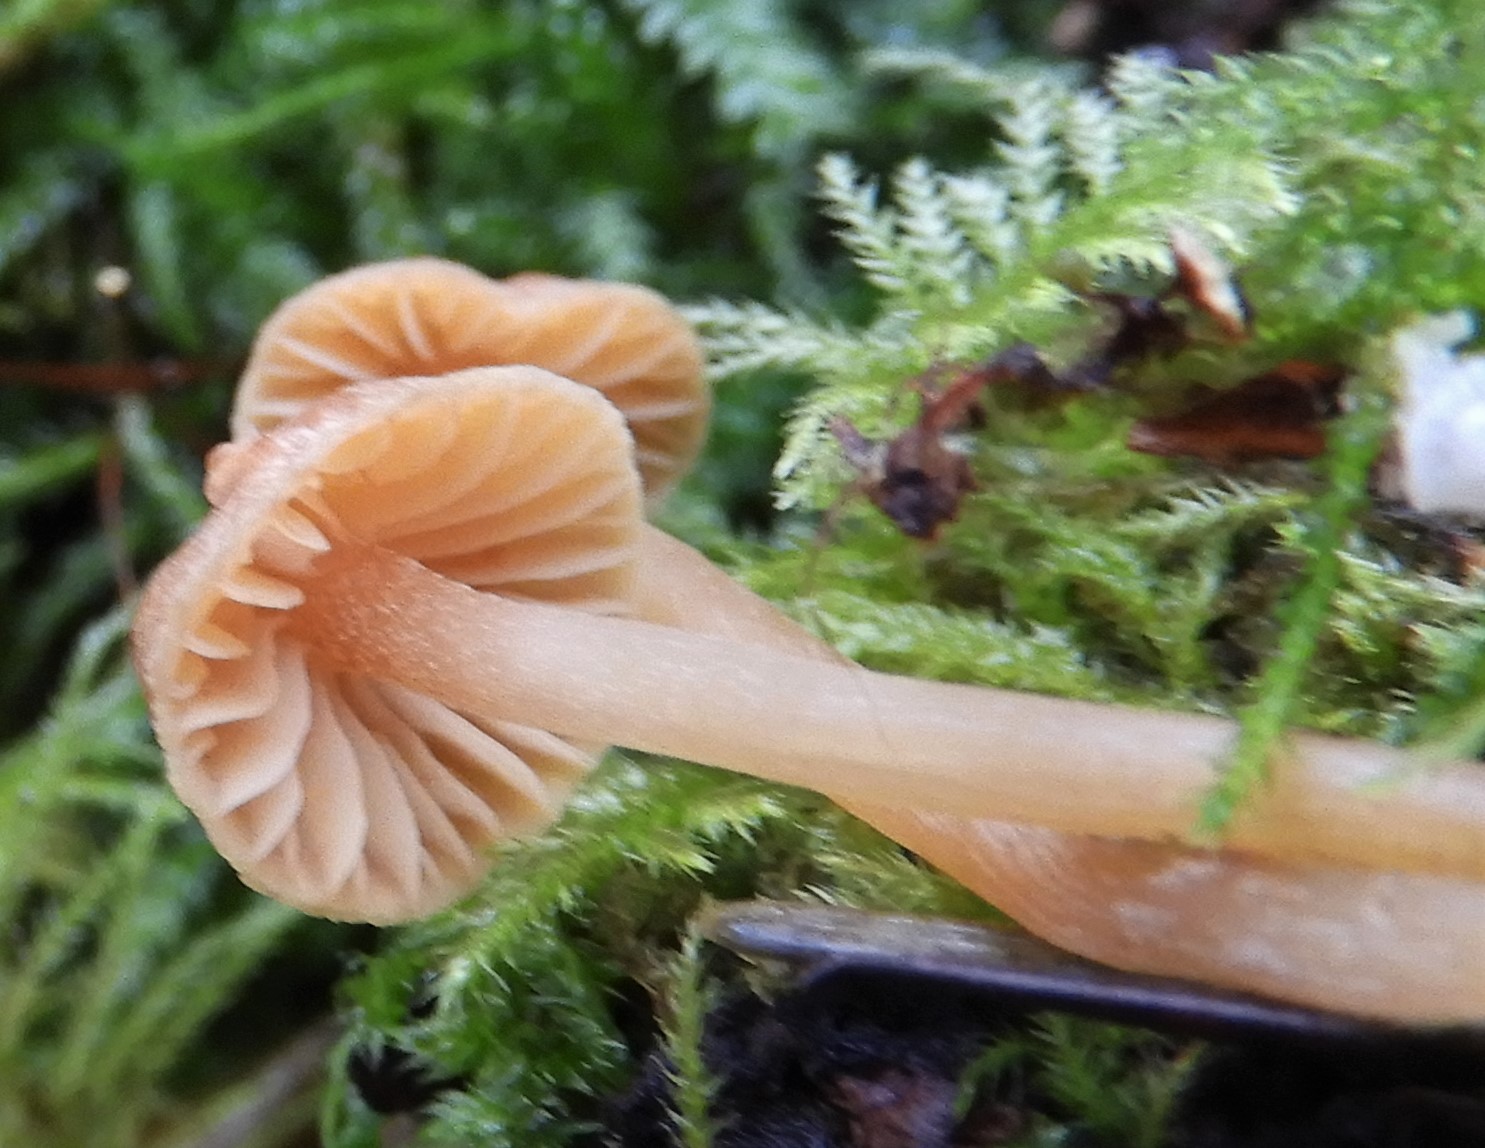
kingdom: Fungi
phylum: Basidiomycota
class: Agaricomycetes
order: Agaricales
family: Tubariaceae
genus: Tubaria
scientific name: Tubaria furfuracea
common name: kliddet fnughat
